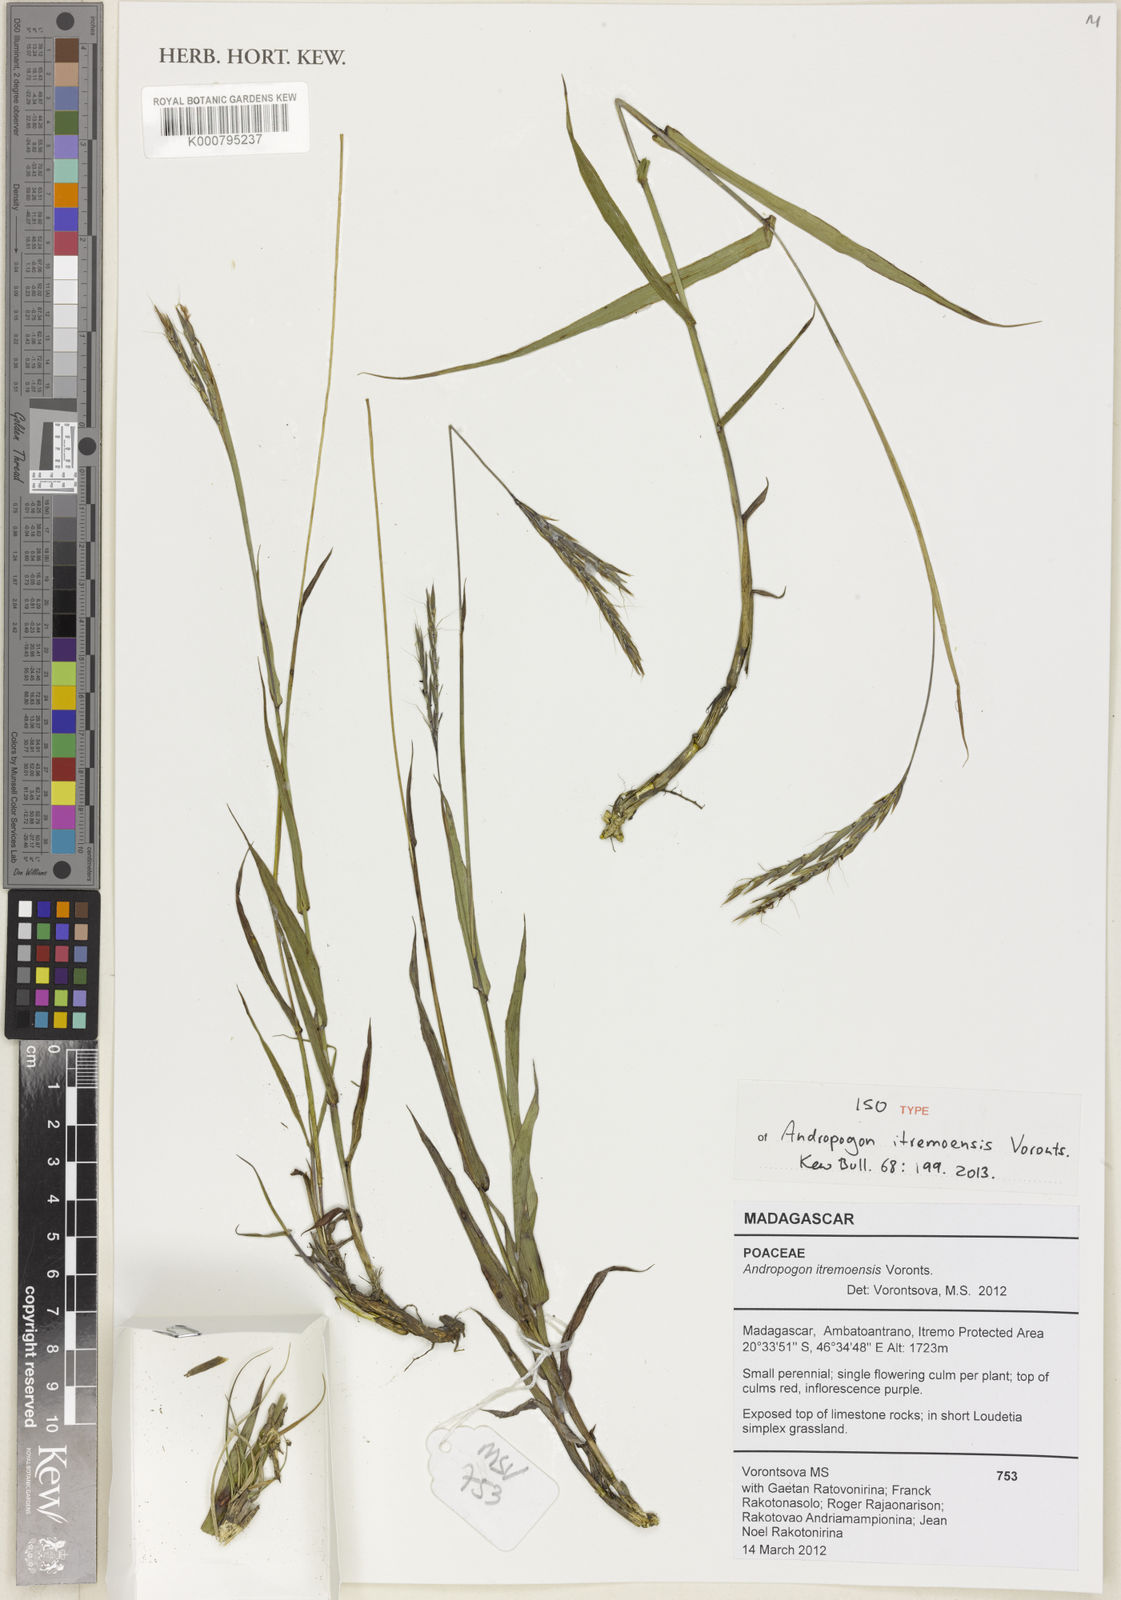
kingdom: Plantae
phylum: Tracheophyta
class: Liliopsida
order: Poales
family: Poaceae
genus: Andropogon
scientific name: Andropogon itremoensis
